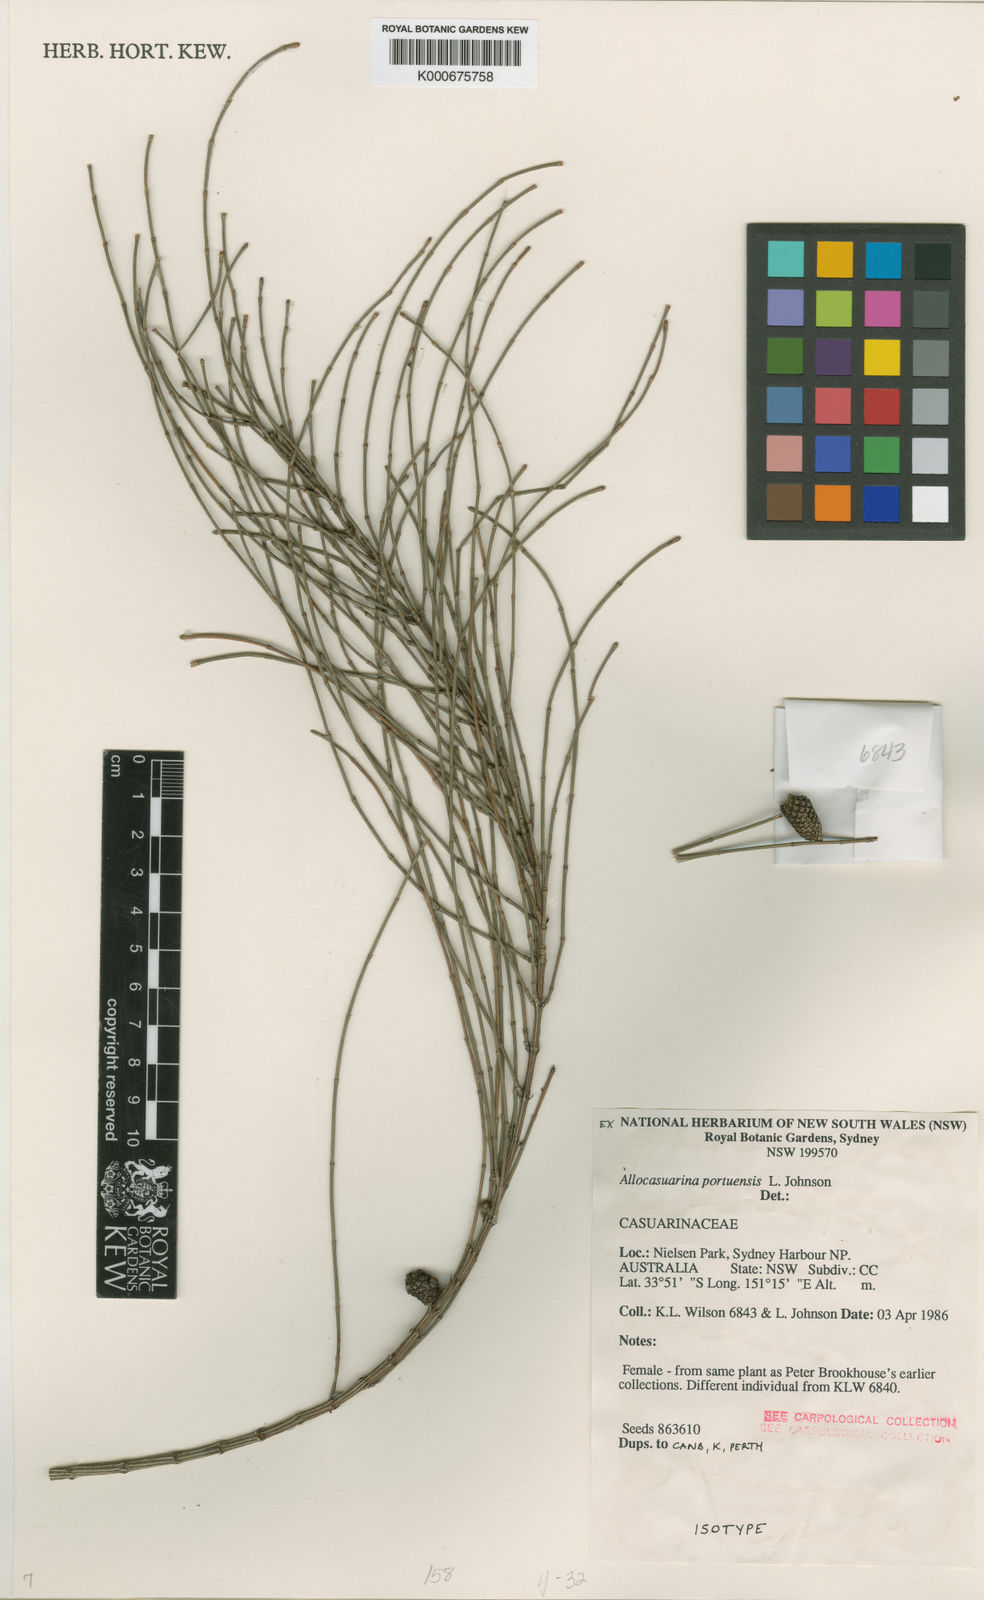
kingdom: Plantae
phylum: Tracheophyta
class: Magnoliopsida
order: Fagales
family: Casuarinaceae
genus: Allocasuarina
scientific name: Allocasuarina portuensis
